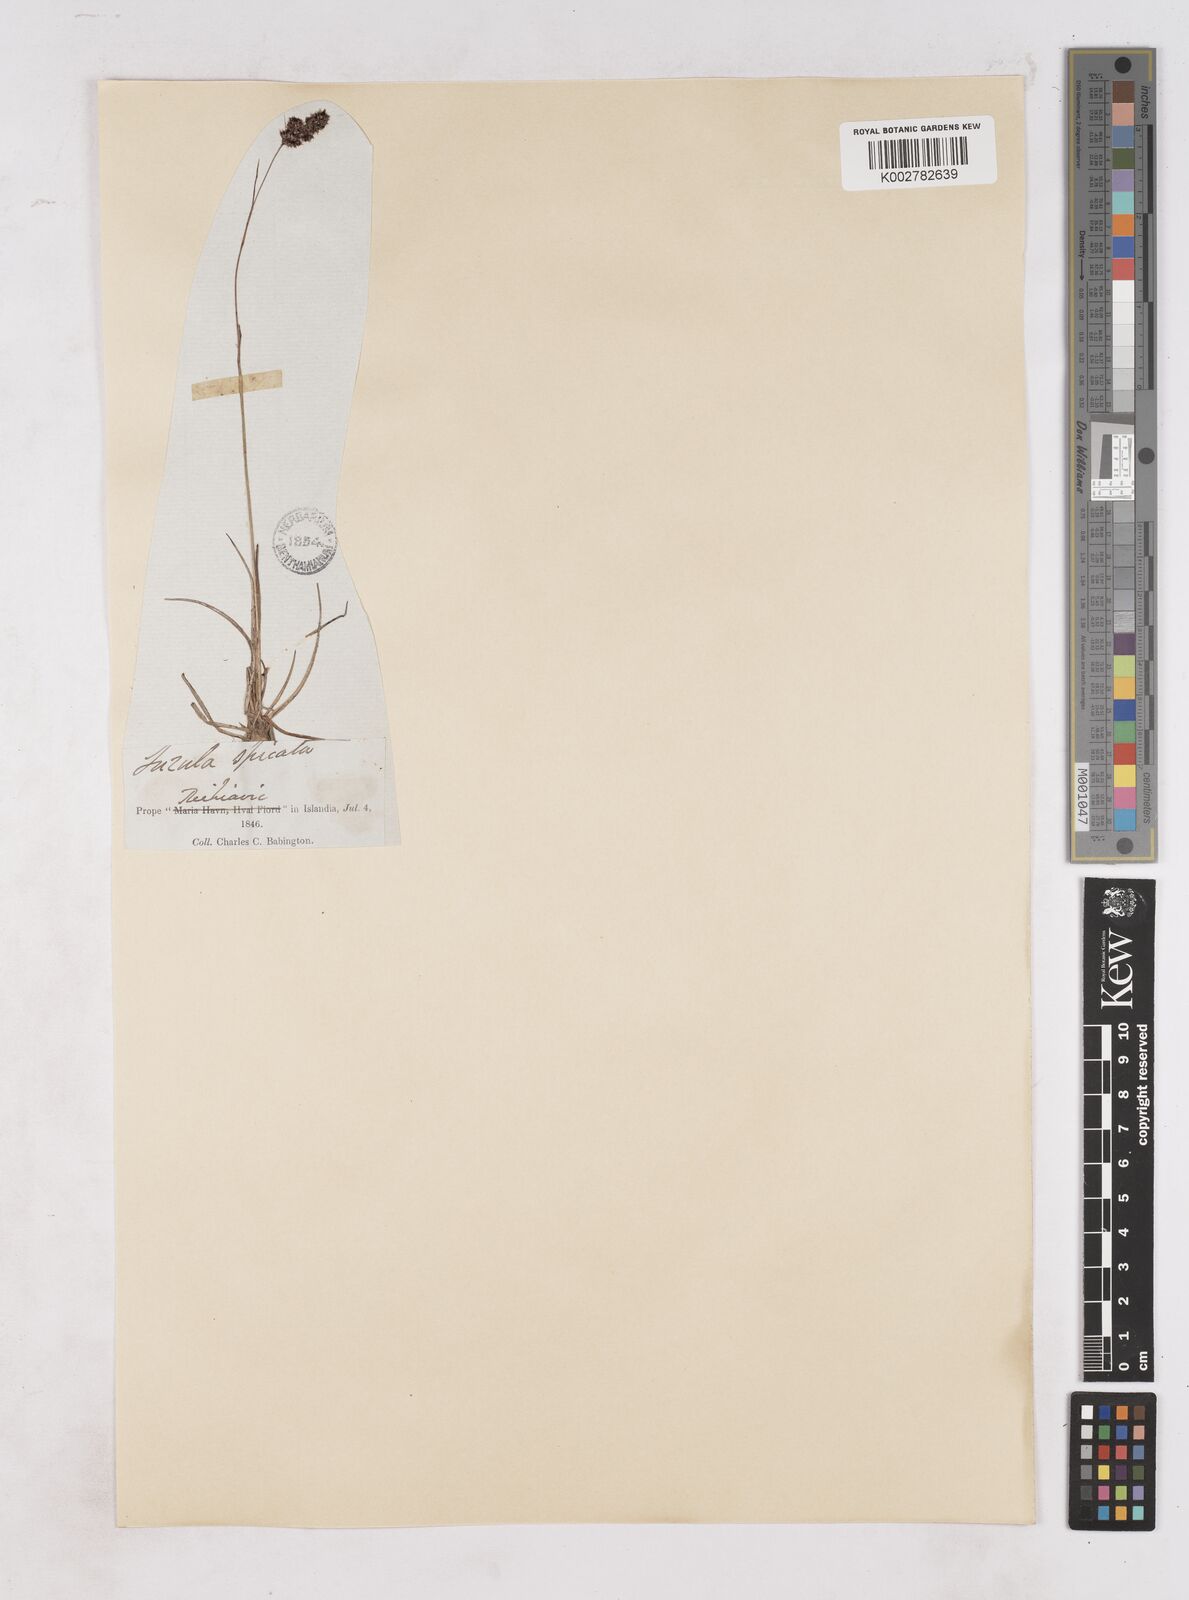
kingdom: Plantae
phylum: Tracheophyta
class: Liliopsida
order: Poales
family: Juncaceae
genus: Luzula
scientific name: Luzula spicata
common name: Spiked wood-rush
